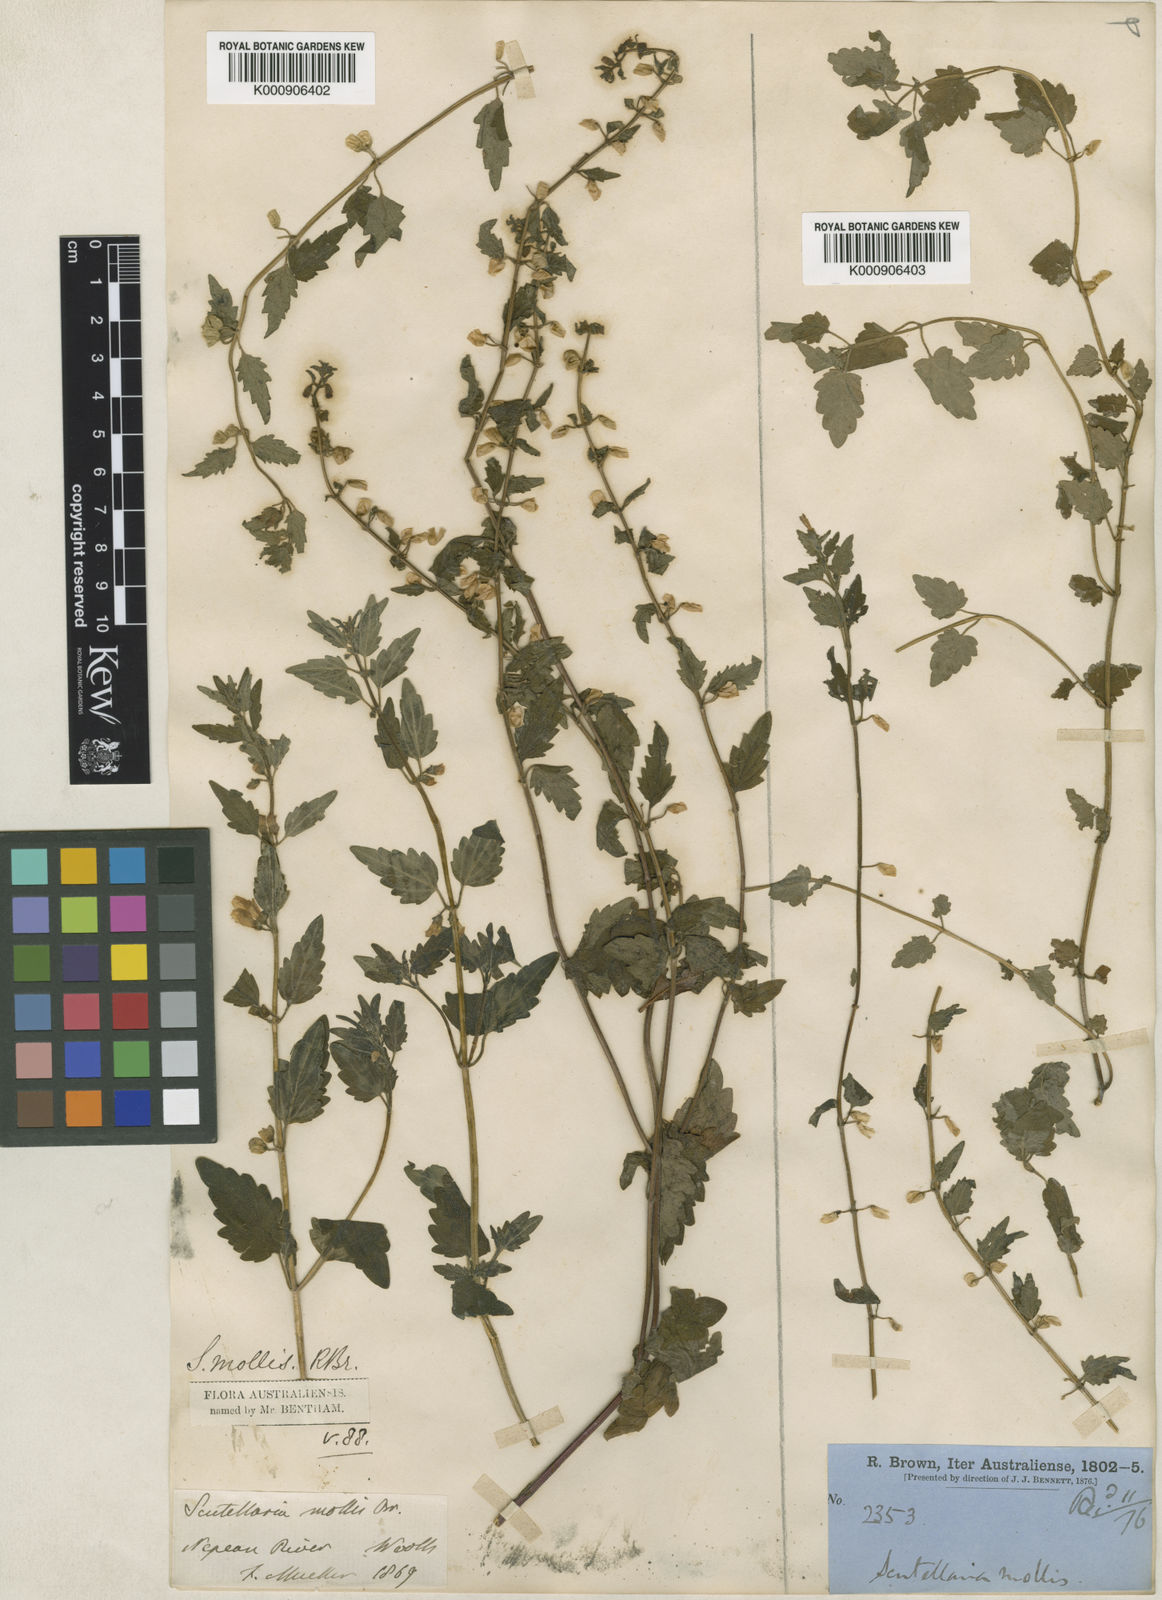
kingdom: Plantae
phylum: Tracheophyta
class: Magnoliopsida
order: Lamiales
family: Lamiaceae
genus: Scutellaria
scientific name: Scutellaria shweliensis
